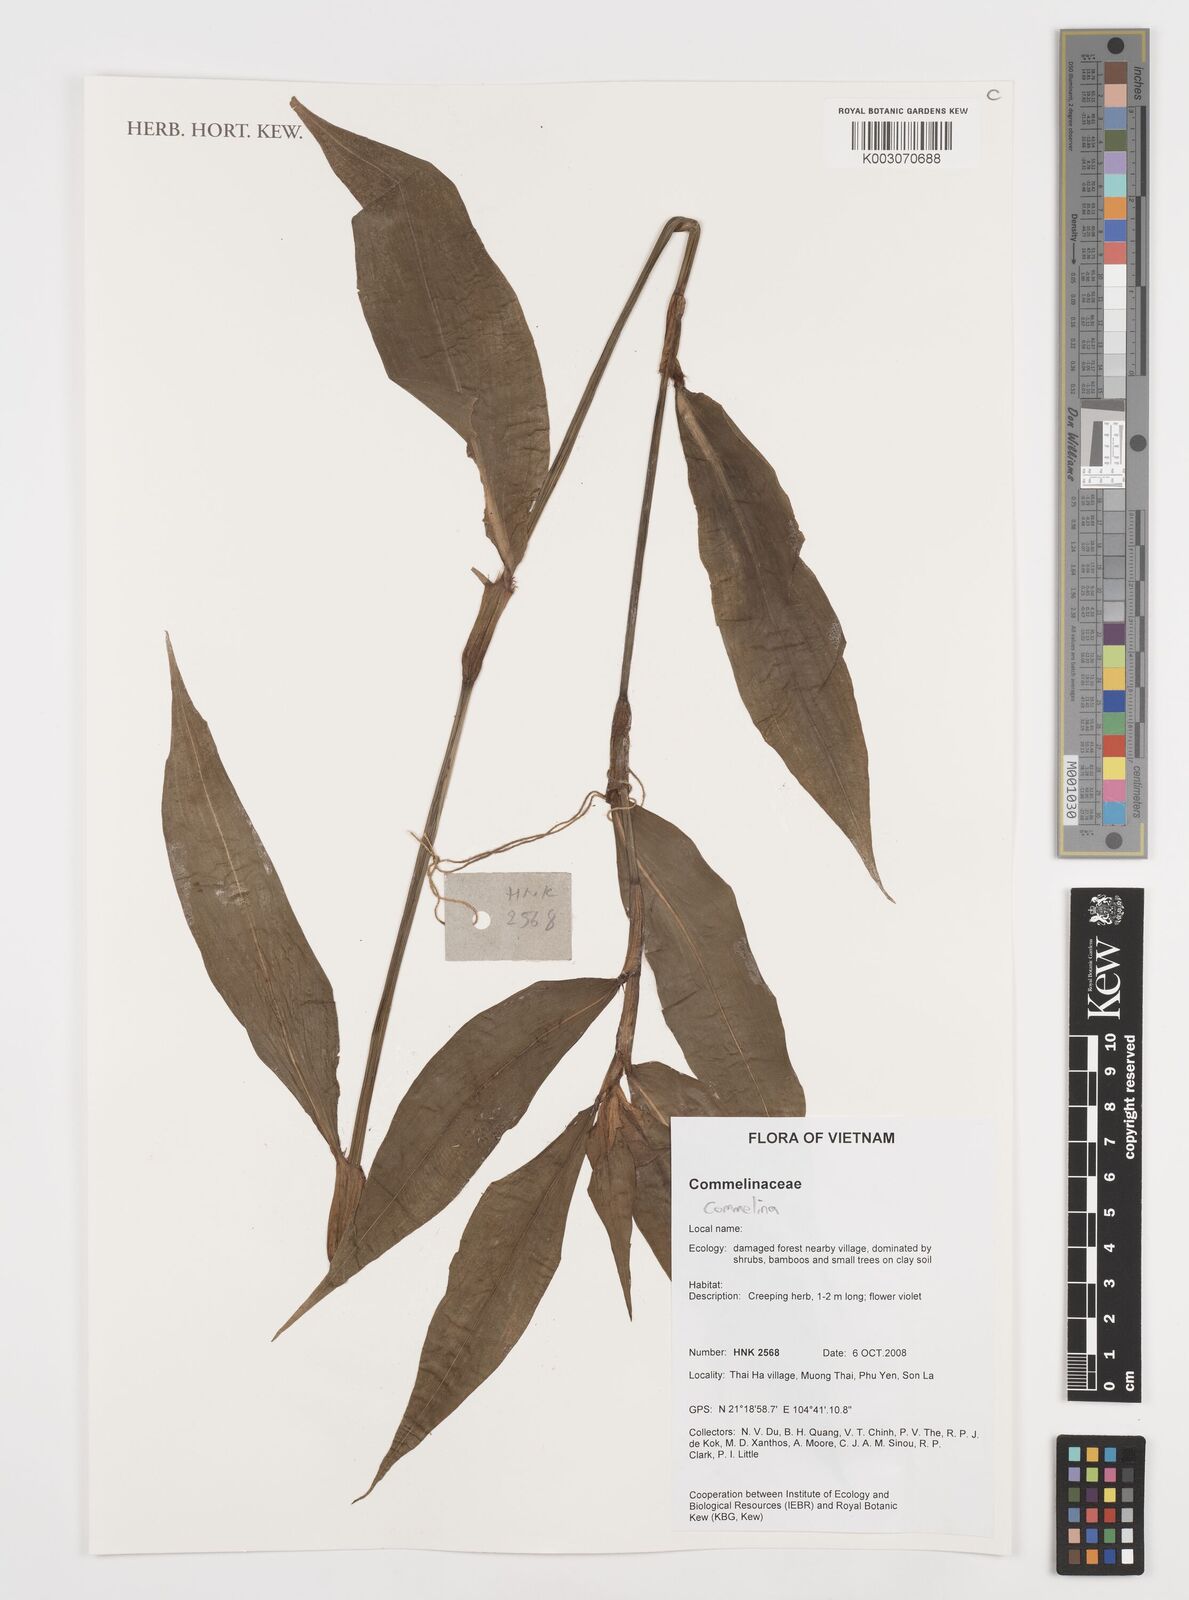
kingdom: Plantae
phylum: Tracheophyta
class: Liliopsida
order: Commelinales
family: Commelinaceae
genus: Commelina
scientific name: Commelina
